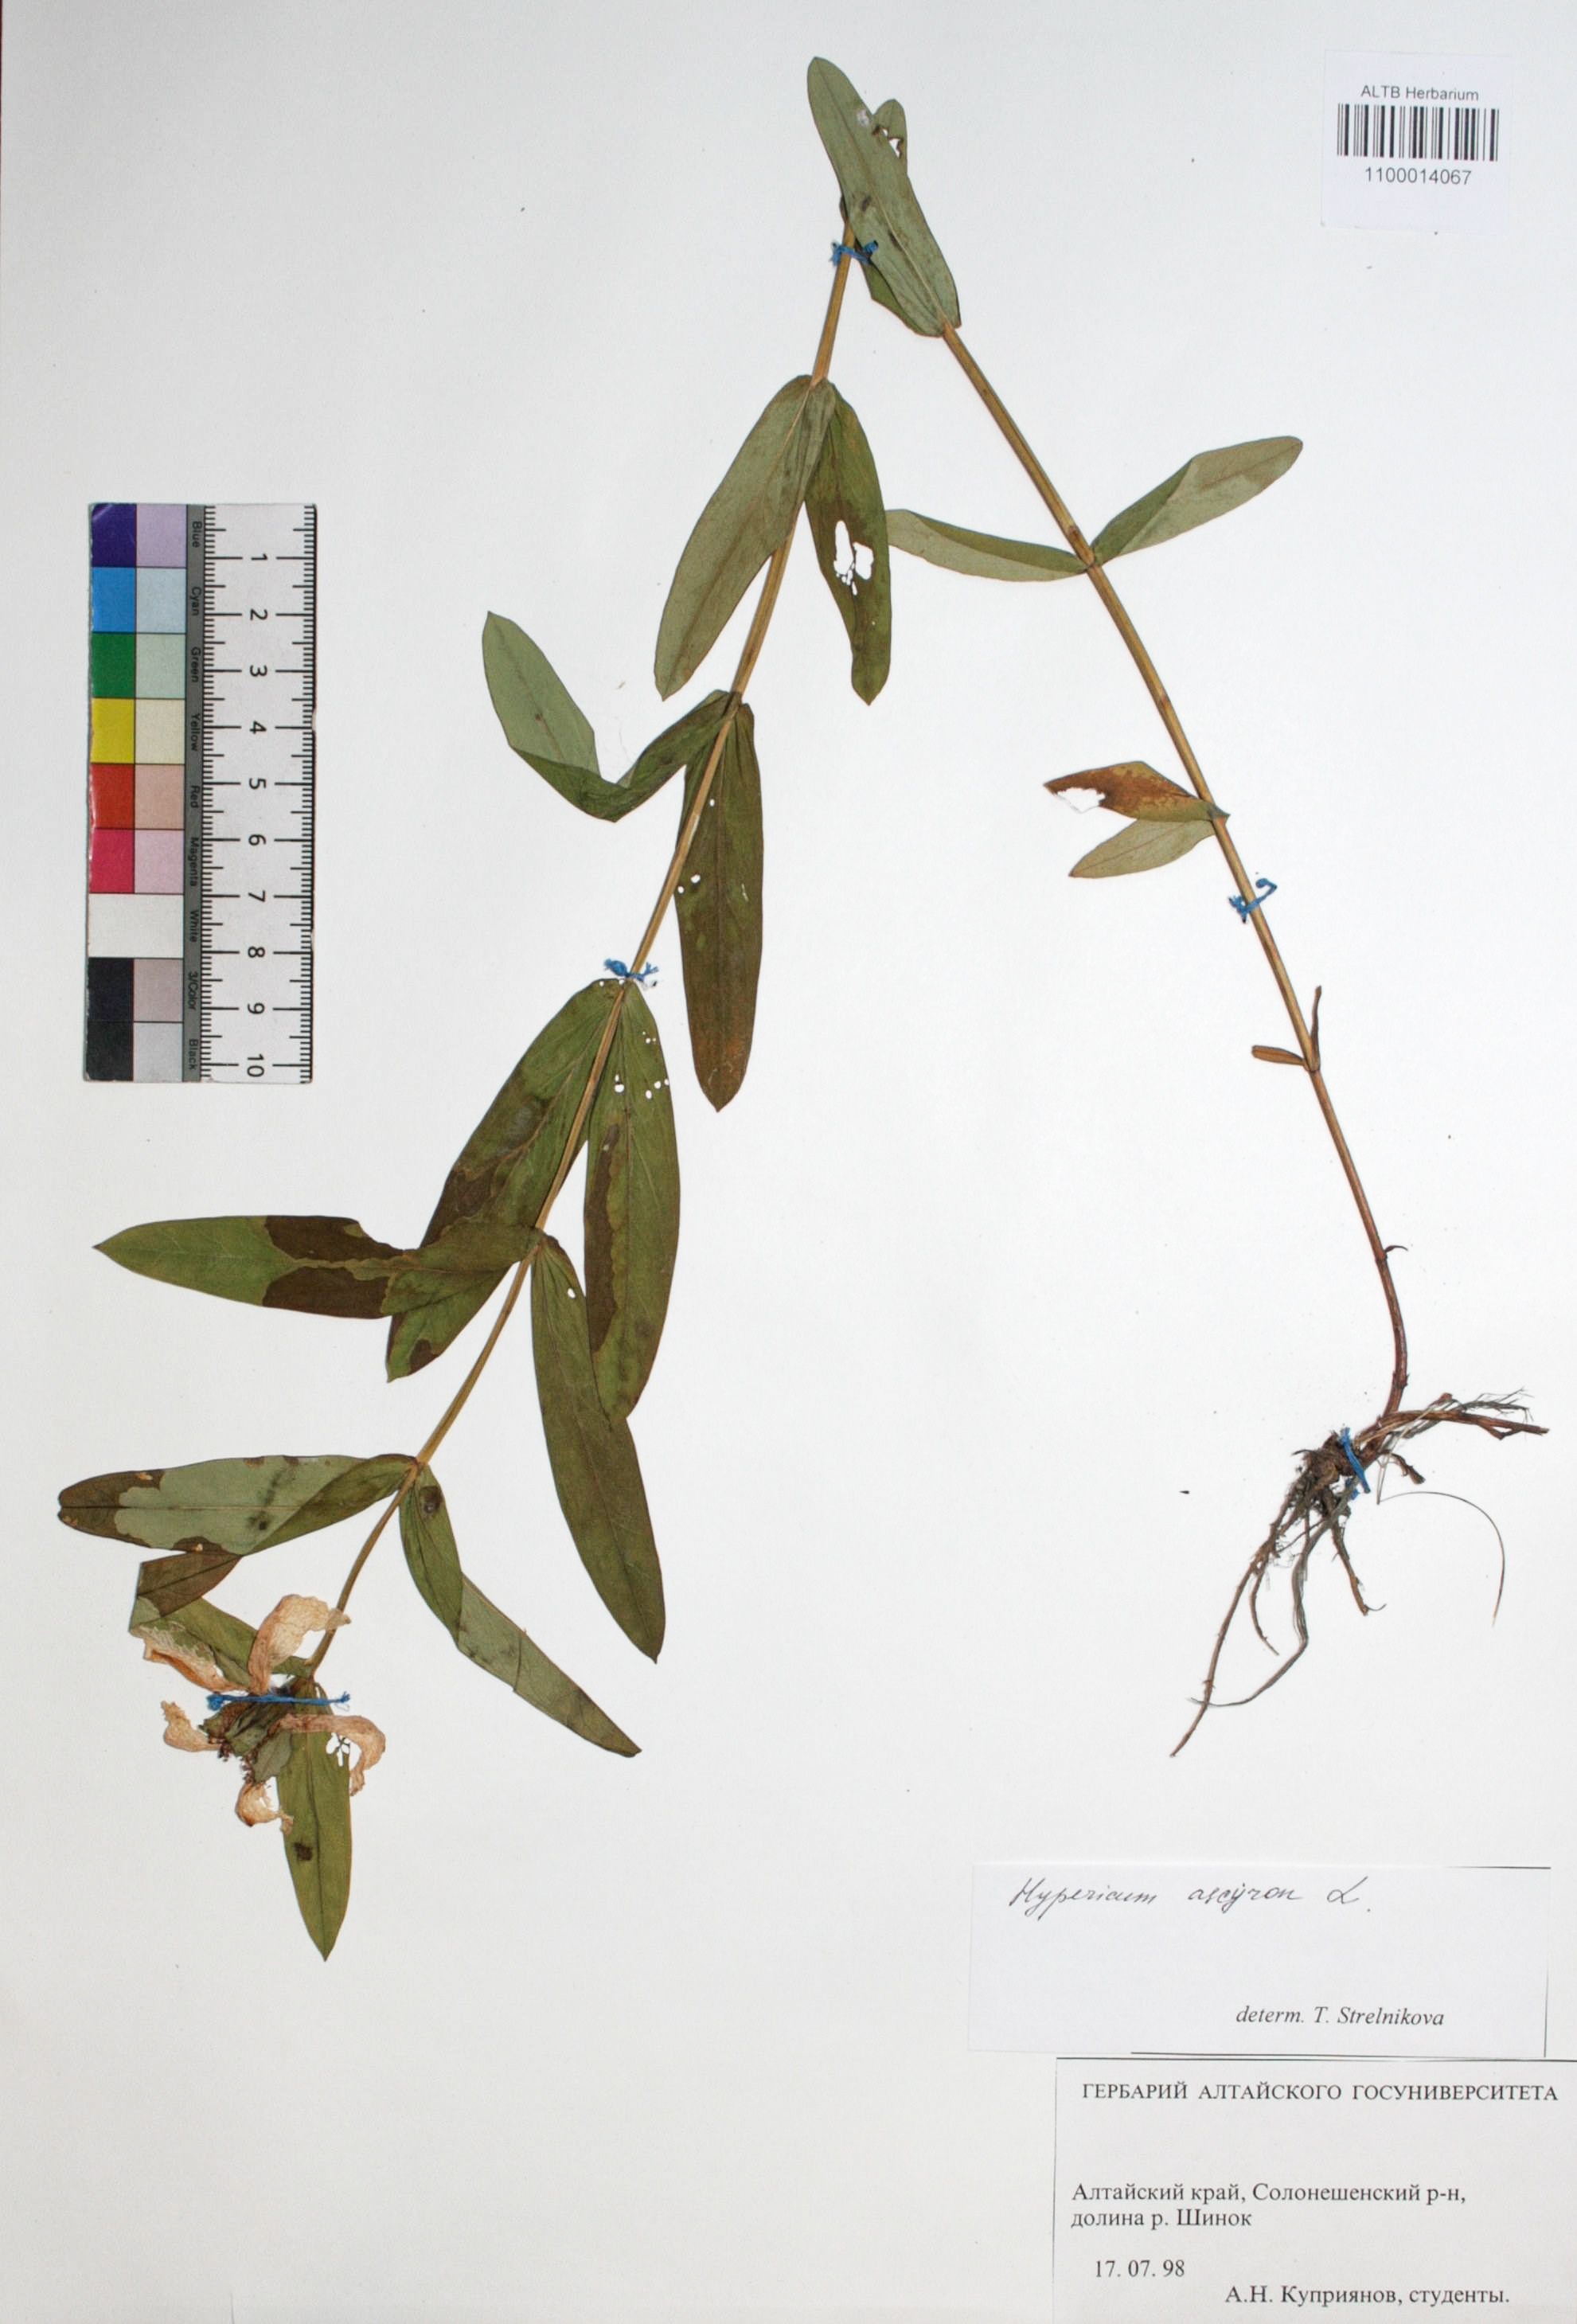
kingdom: Plantae
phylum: Tracheophyta
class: Magnoliopsida
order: Malpighiales
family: Hypericaceae
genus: Hypericum
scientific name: Hypericum ascyron
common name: Giant st. john's-wort
